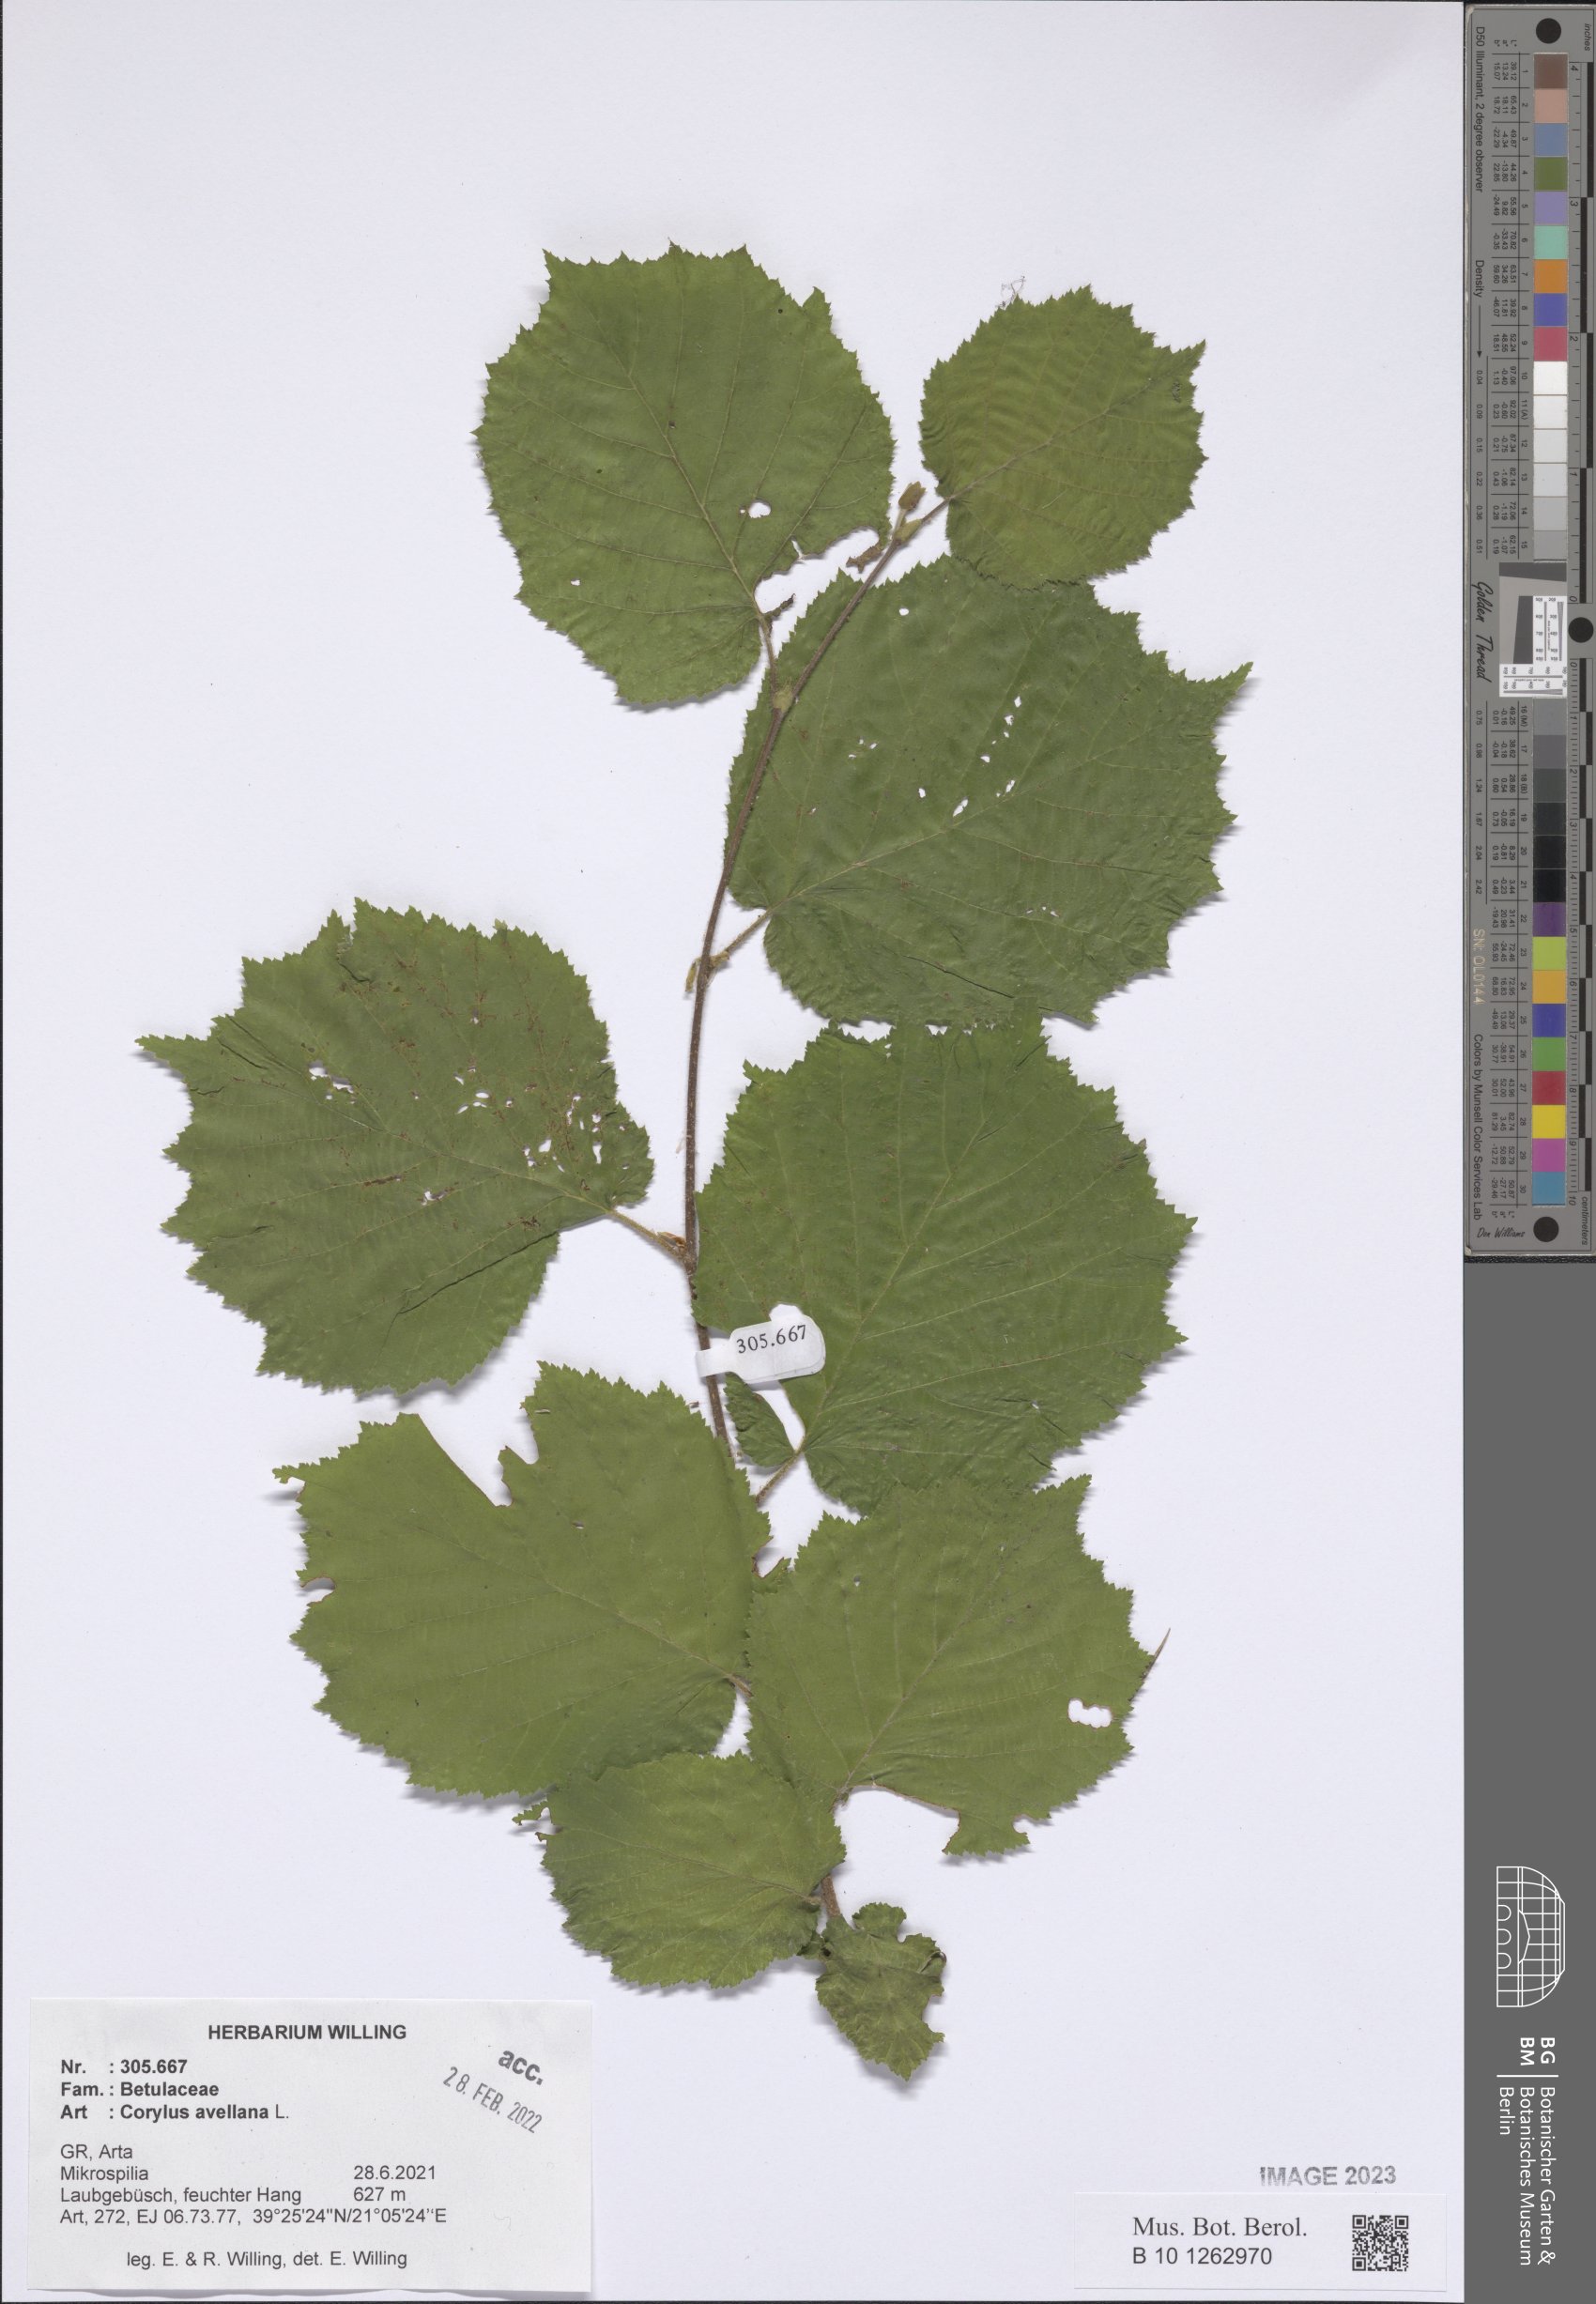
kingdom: Plantae
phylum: Tracheophyta
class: Magnoliopsida
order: Fagales
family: Betulaceae
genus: Corylus
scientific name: Corylus avellana
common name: European hazel
